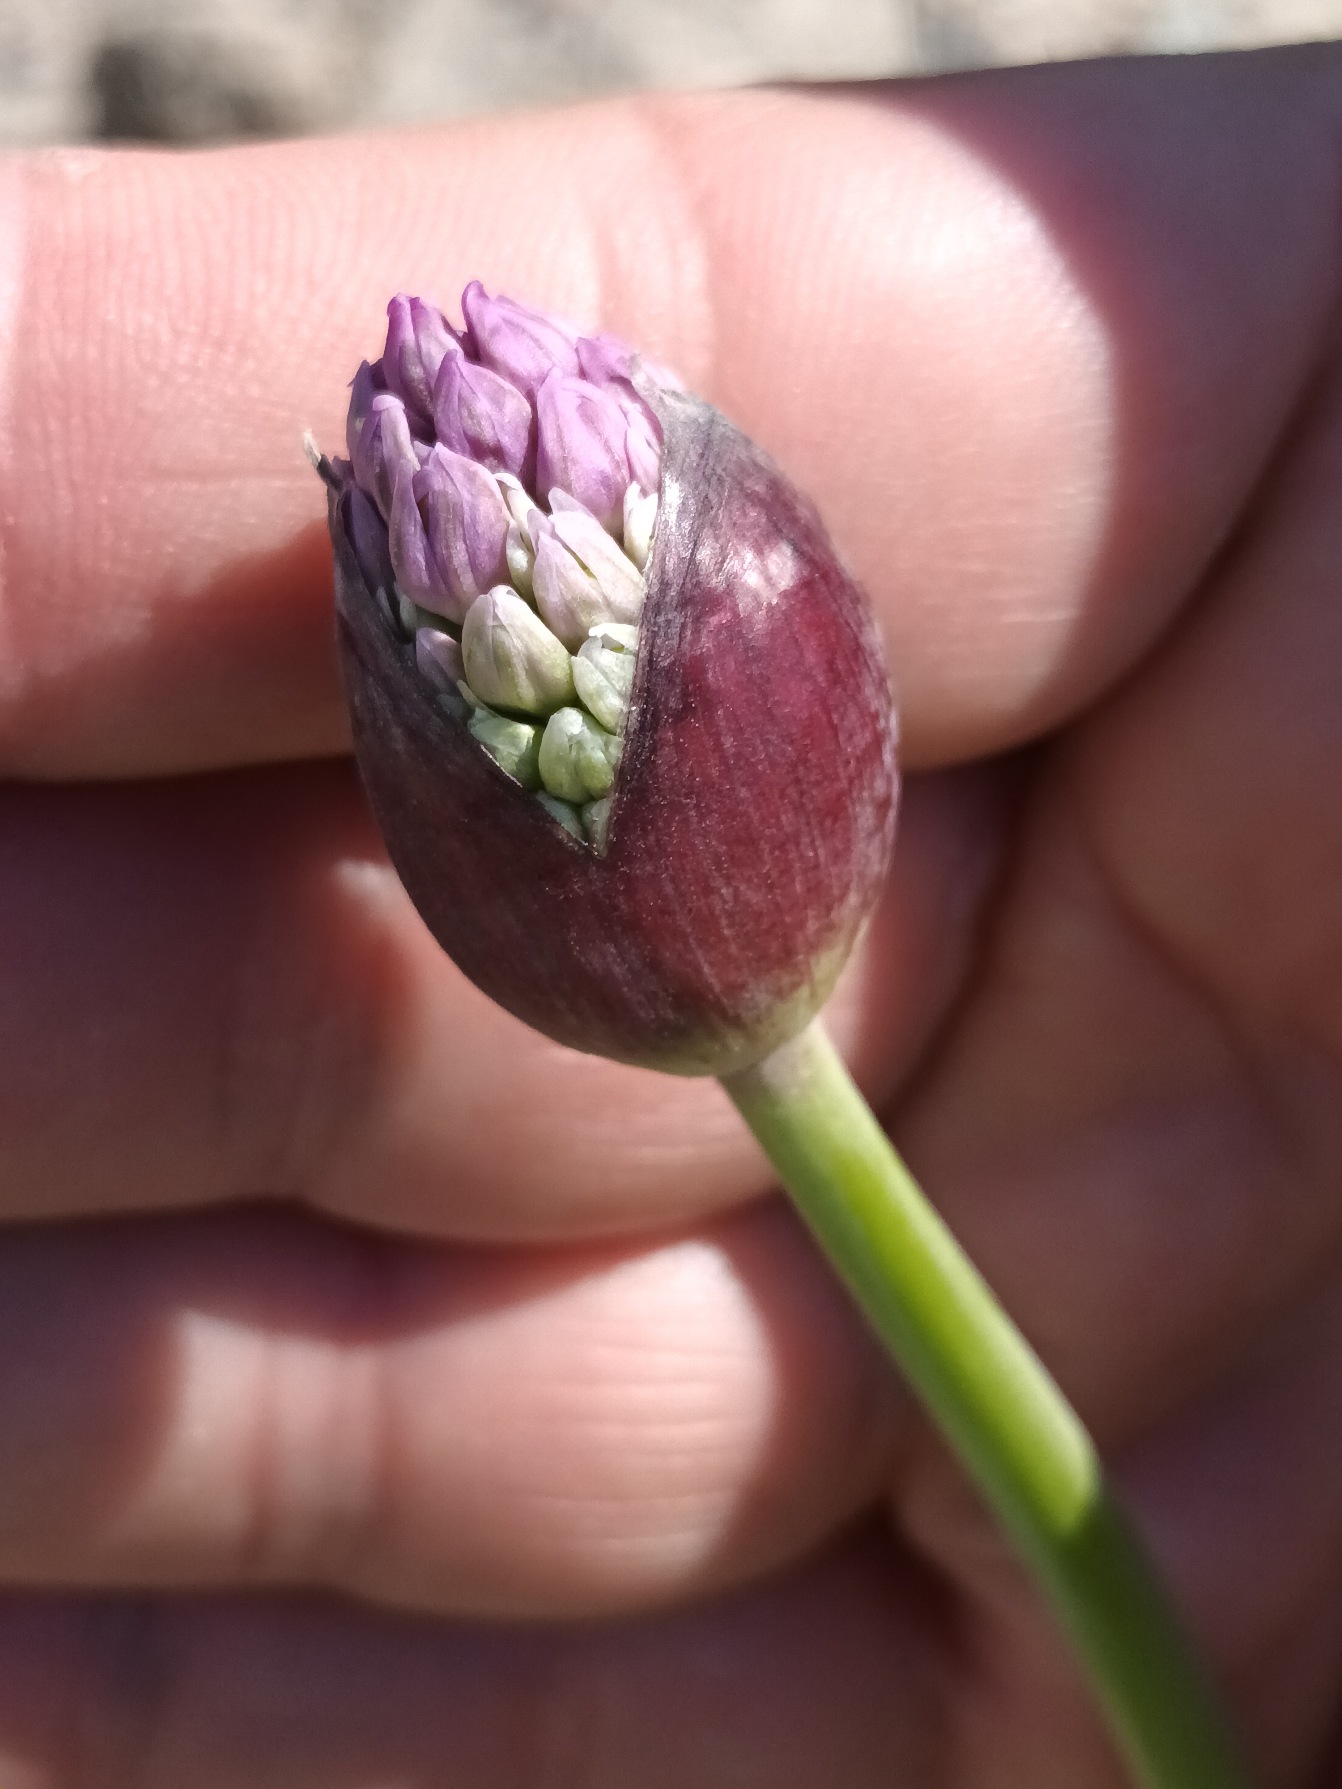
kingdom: Plantae
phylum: Tracheophyta
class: Liliopsida
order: Asparagales
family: Amaryllidaceae
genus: Allium
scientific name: Allium hollandicum
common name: Kirgisisk pryd-løg
